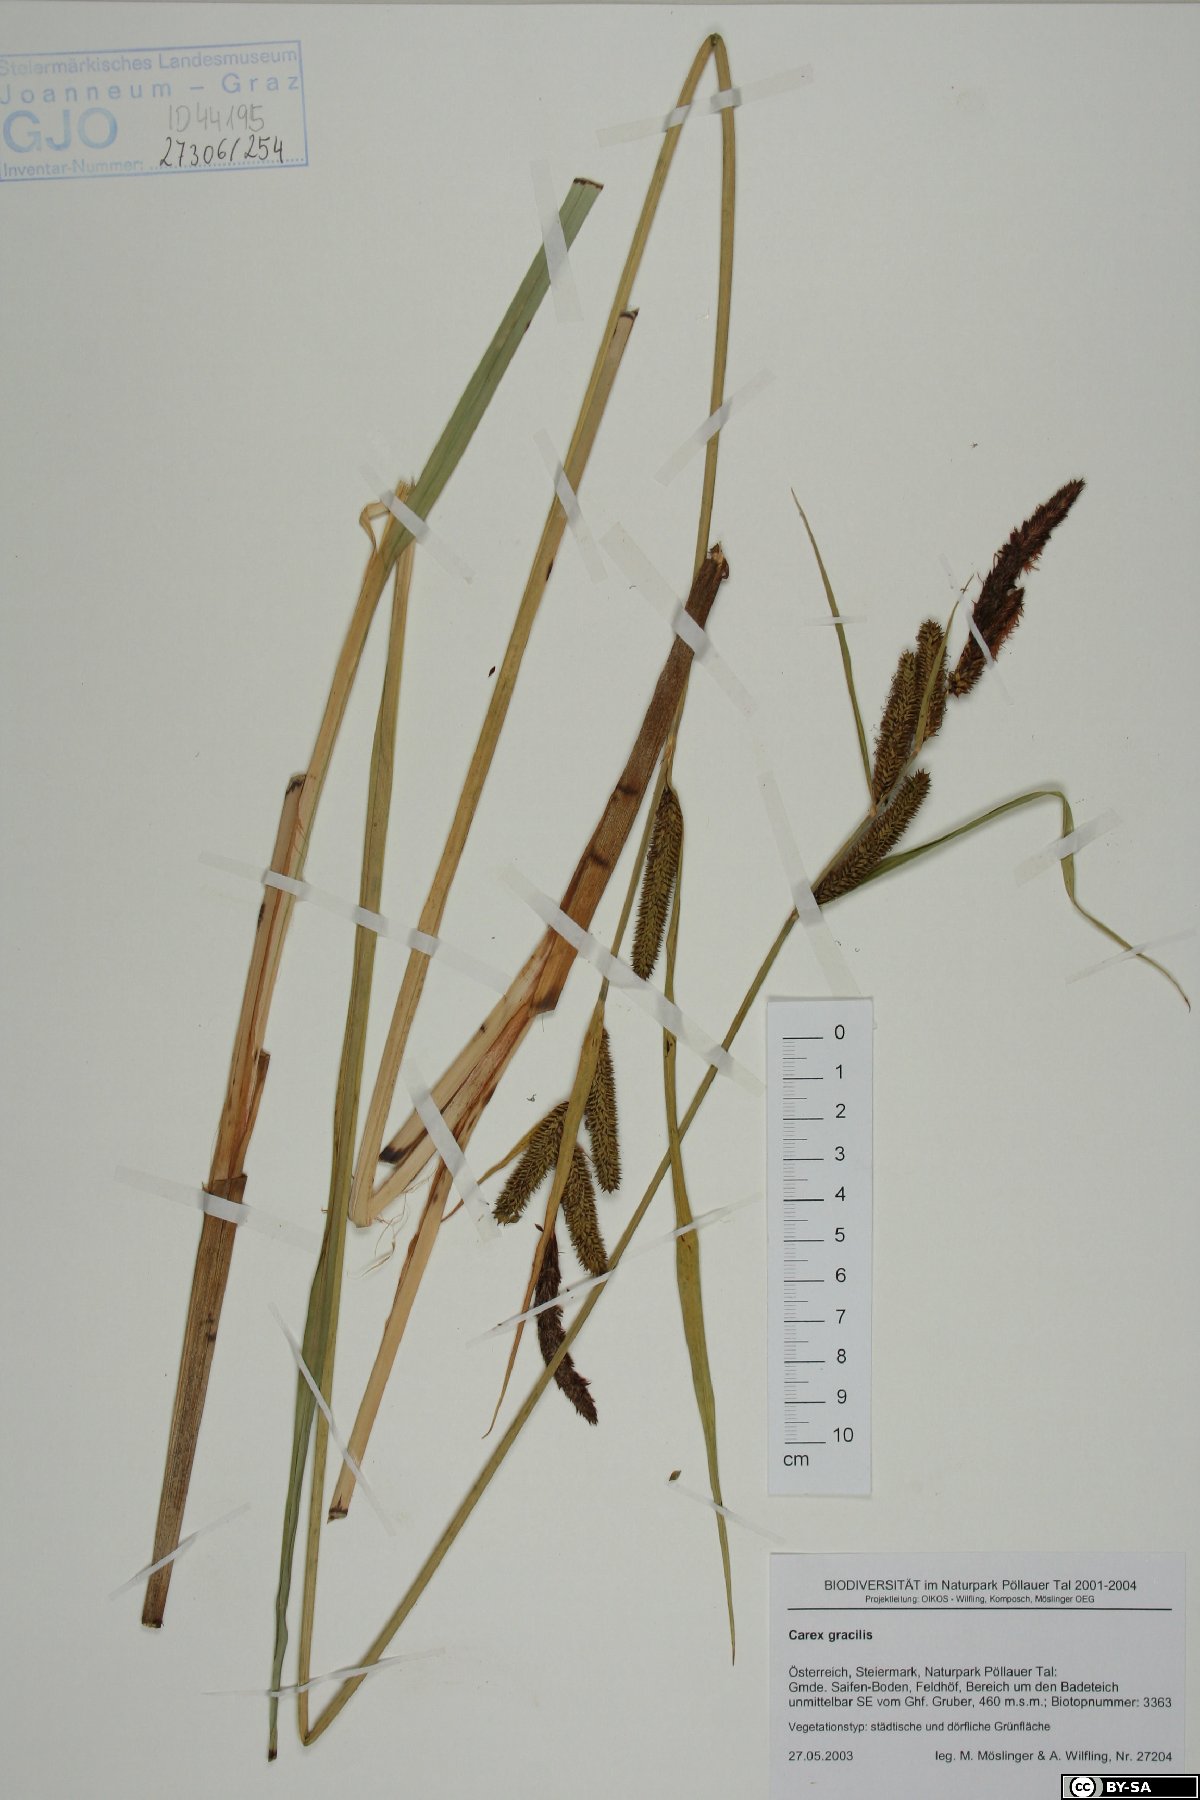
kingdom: Plantae
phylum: Tracheophyta
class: Liliopsida
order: Poales
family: Cyperaceae
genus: Carex
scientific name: Carex acuta
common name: Slender tufted-sedge
